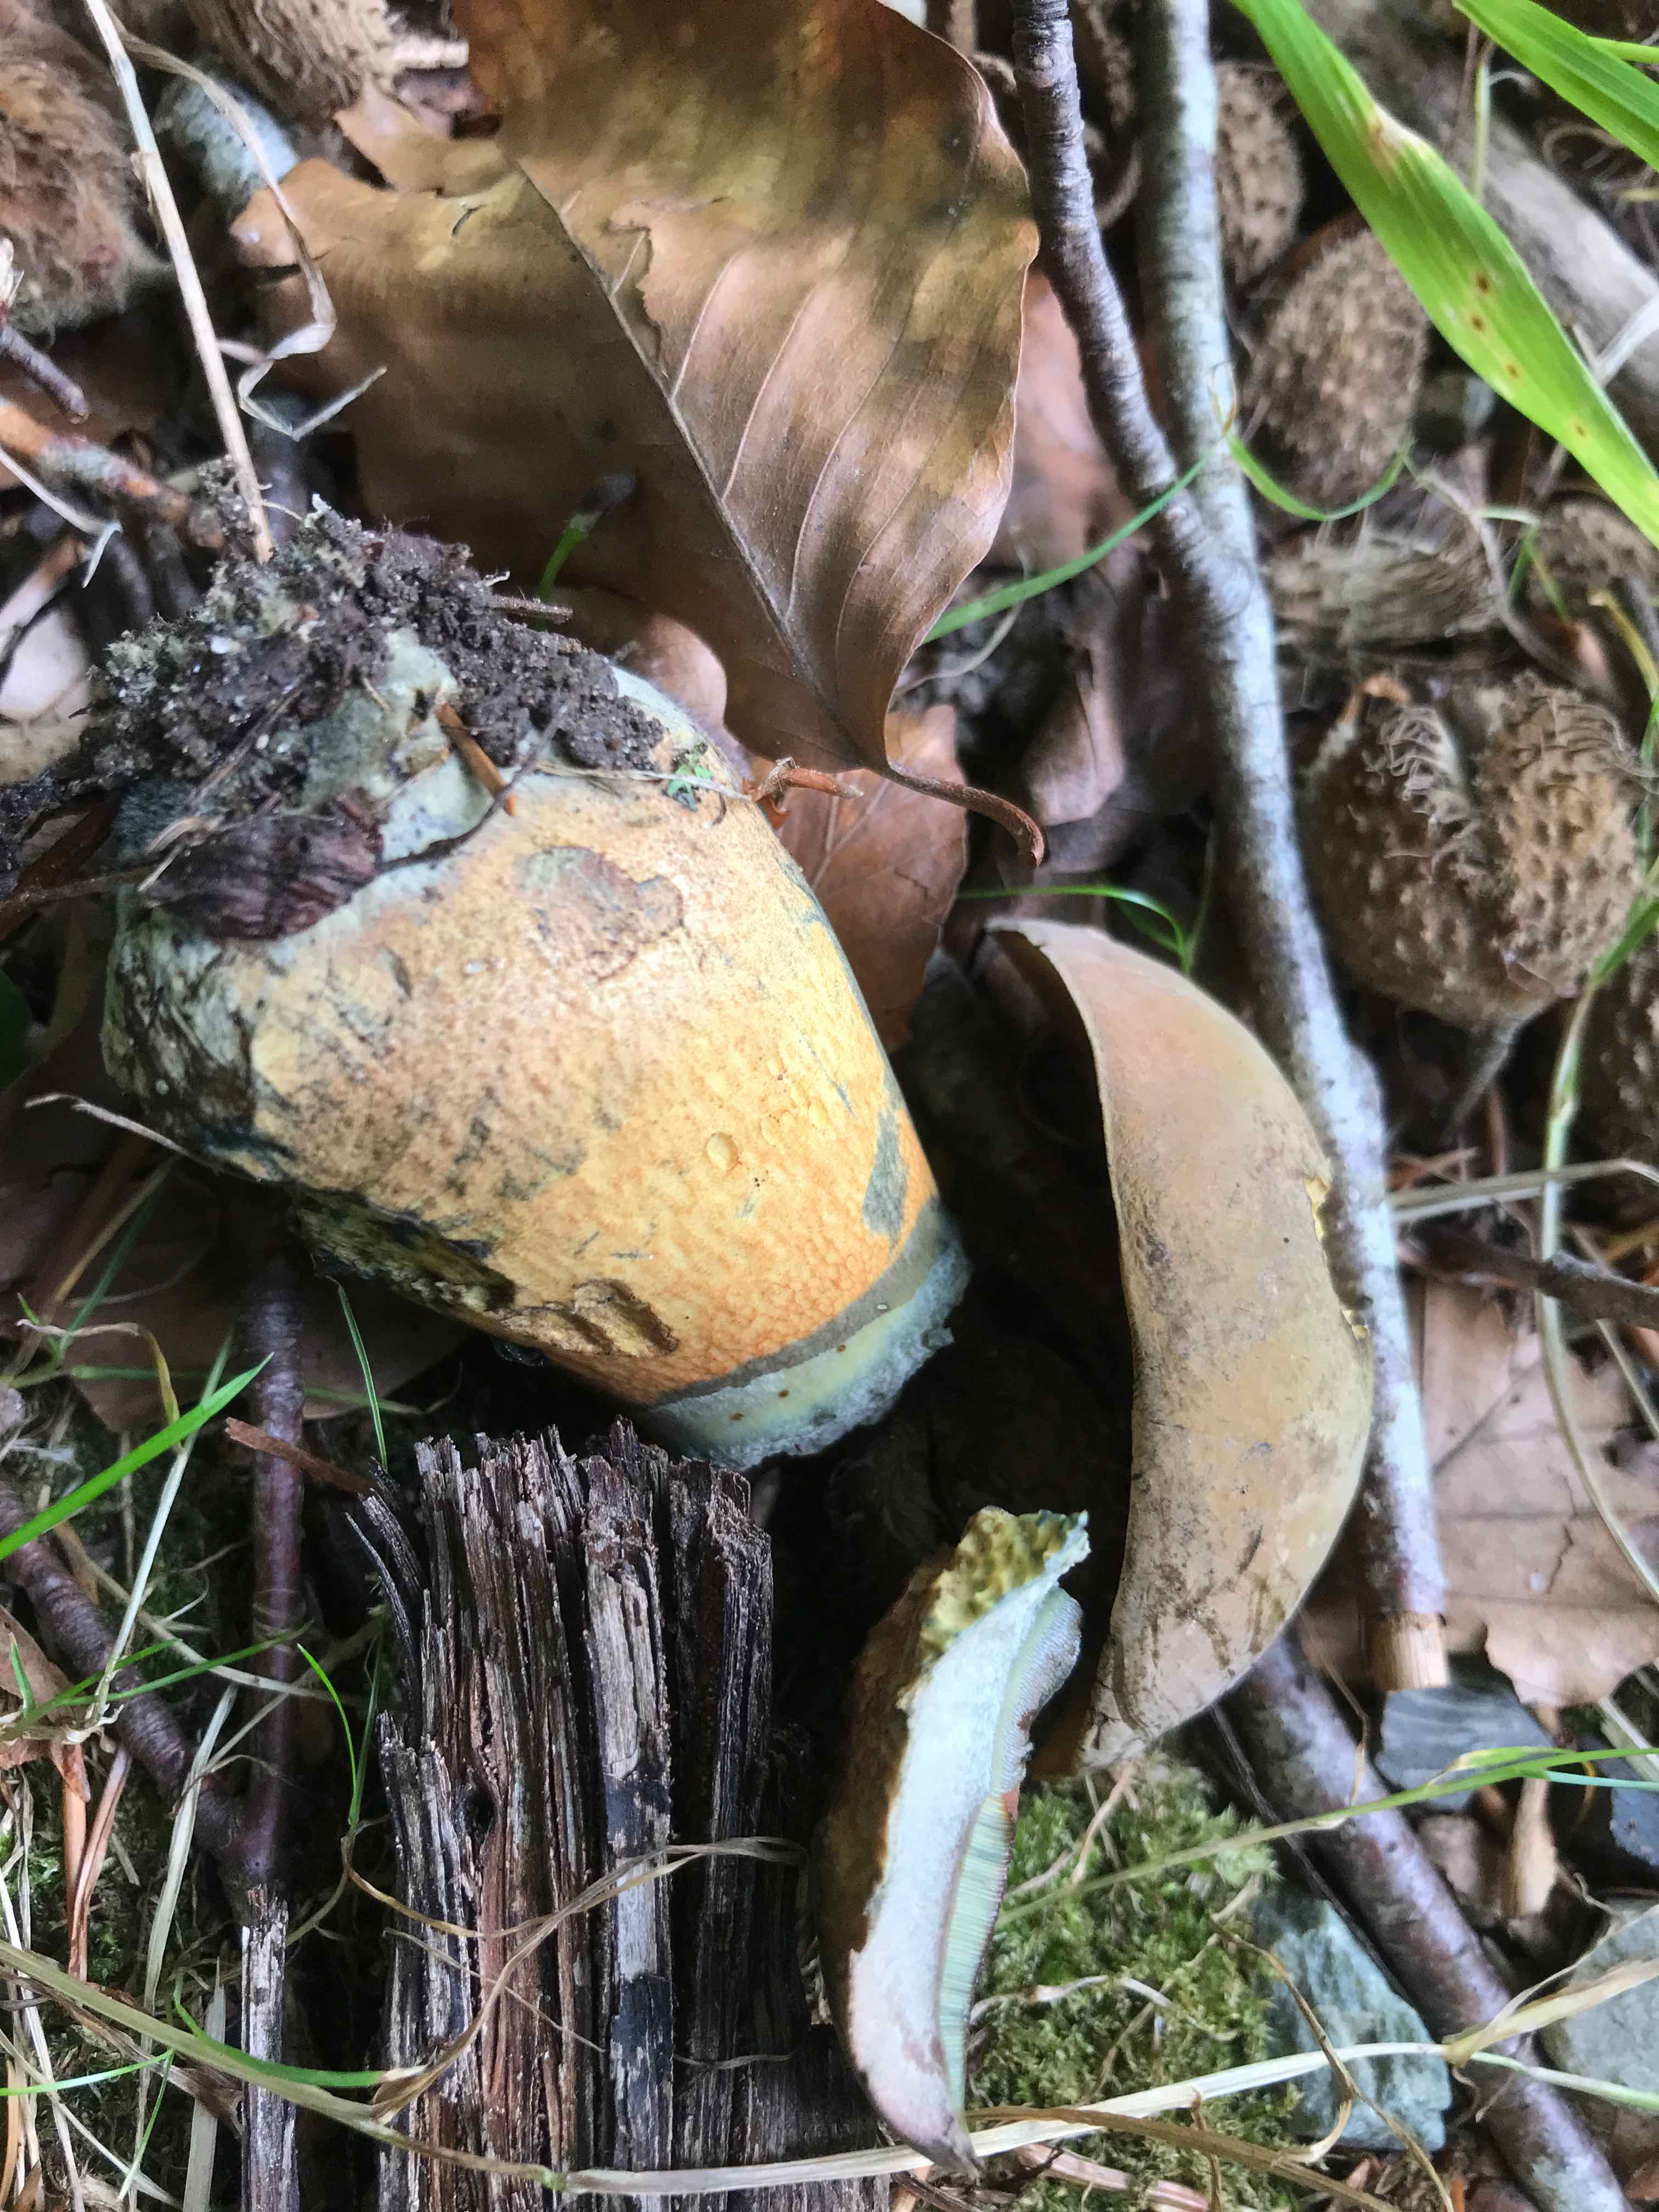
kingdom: Fungi
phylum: Basidiomycota
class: Agaricomycetes
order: Boletales
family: Boletaceae
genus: Sutorius
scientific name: Sutorius
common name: indigorørhat
